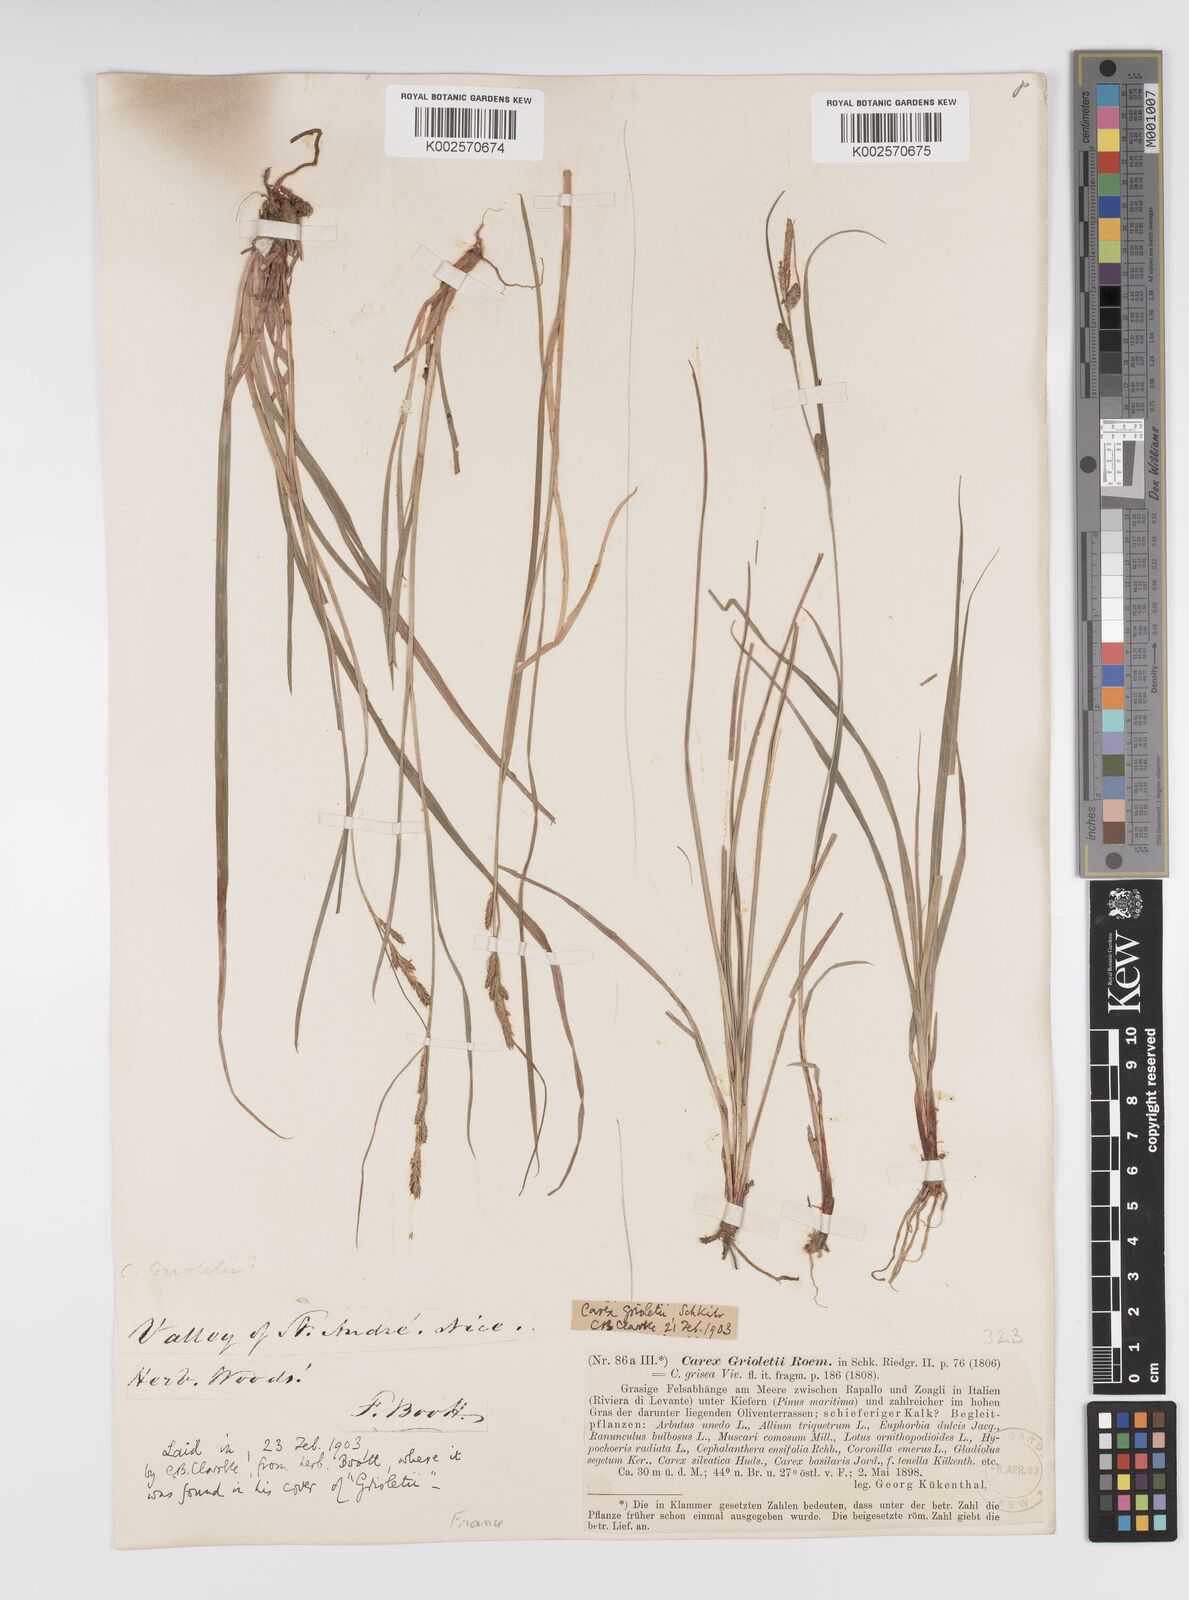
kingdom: Plantae
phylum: Tracheophyta
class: Liliopsida
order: Poales
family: Cyperaceae
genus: Carex
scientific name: Carex grioletii
